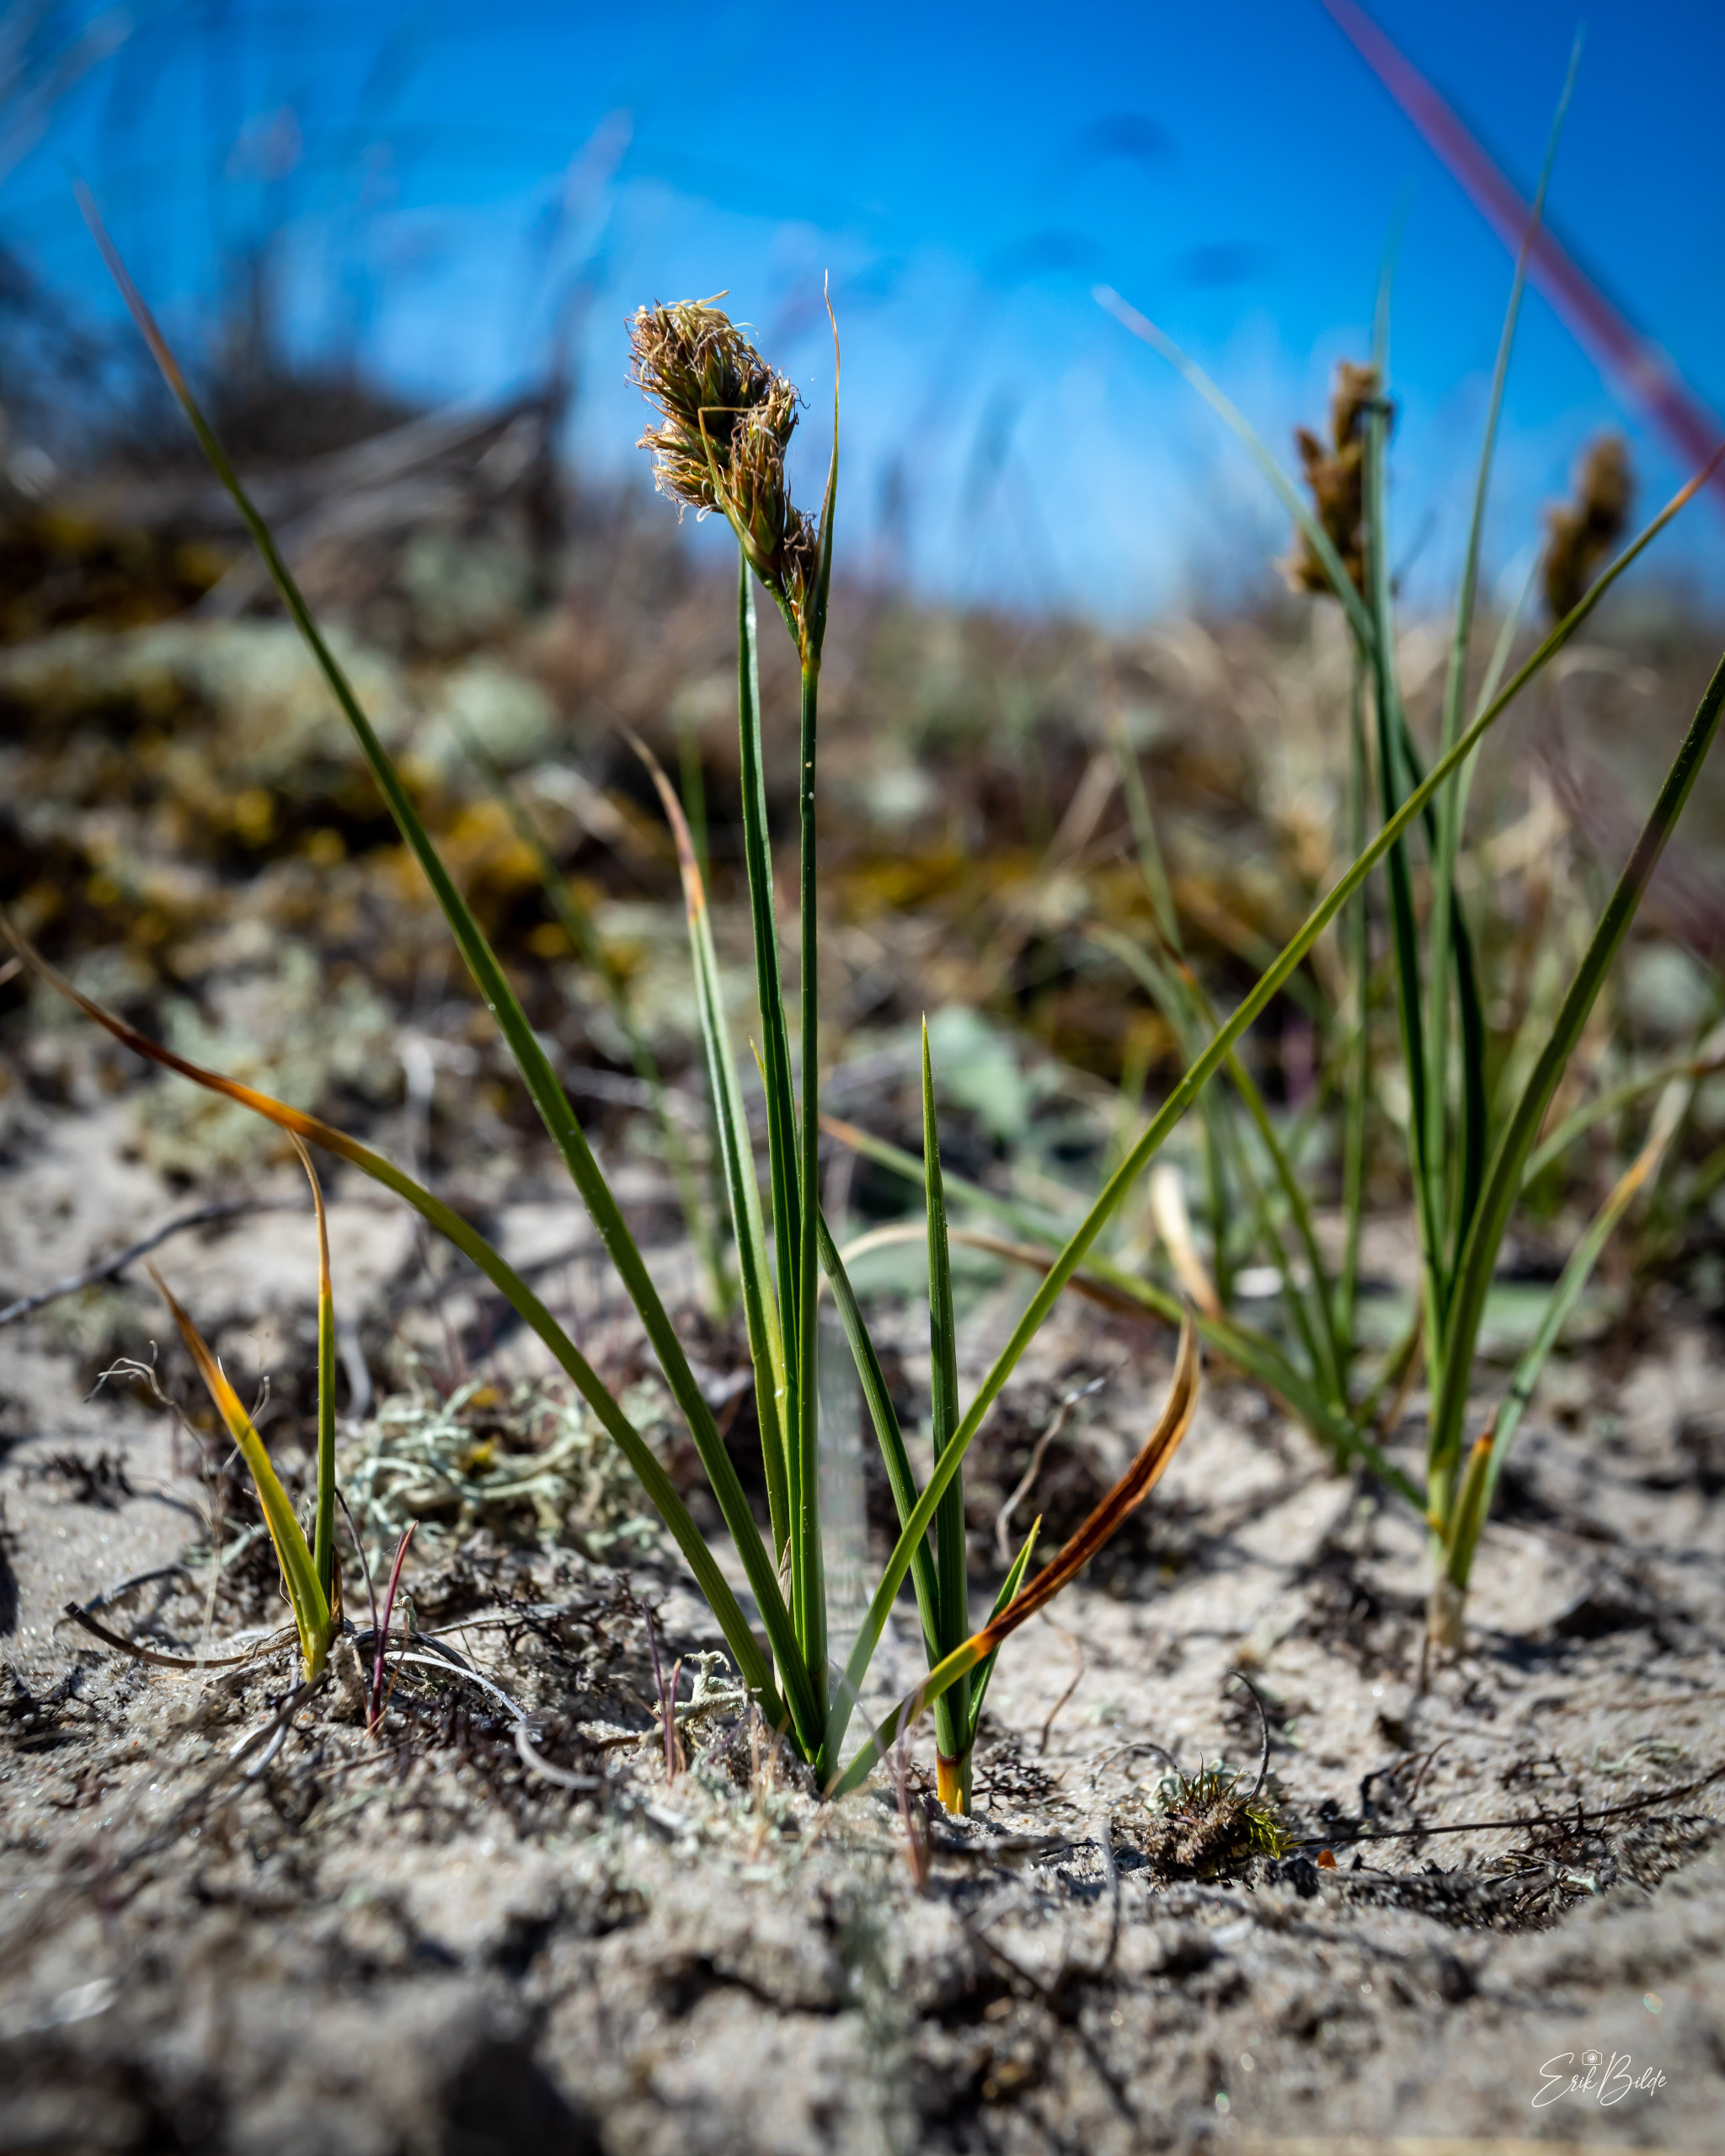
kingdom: Plantae
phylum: Tracheophyta
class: Liliopsida
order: Poales
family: Cyperaceae
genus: Carex
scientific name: Carex arenaria
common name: Sand-star
